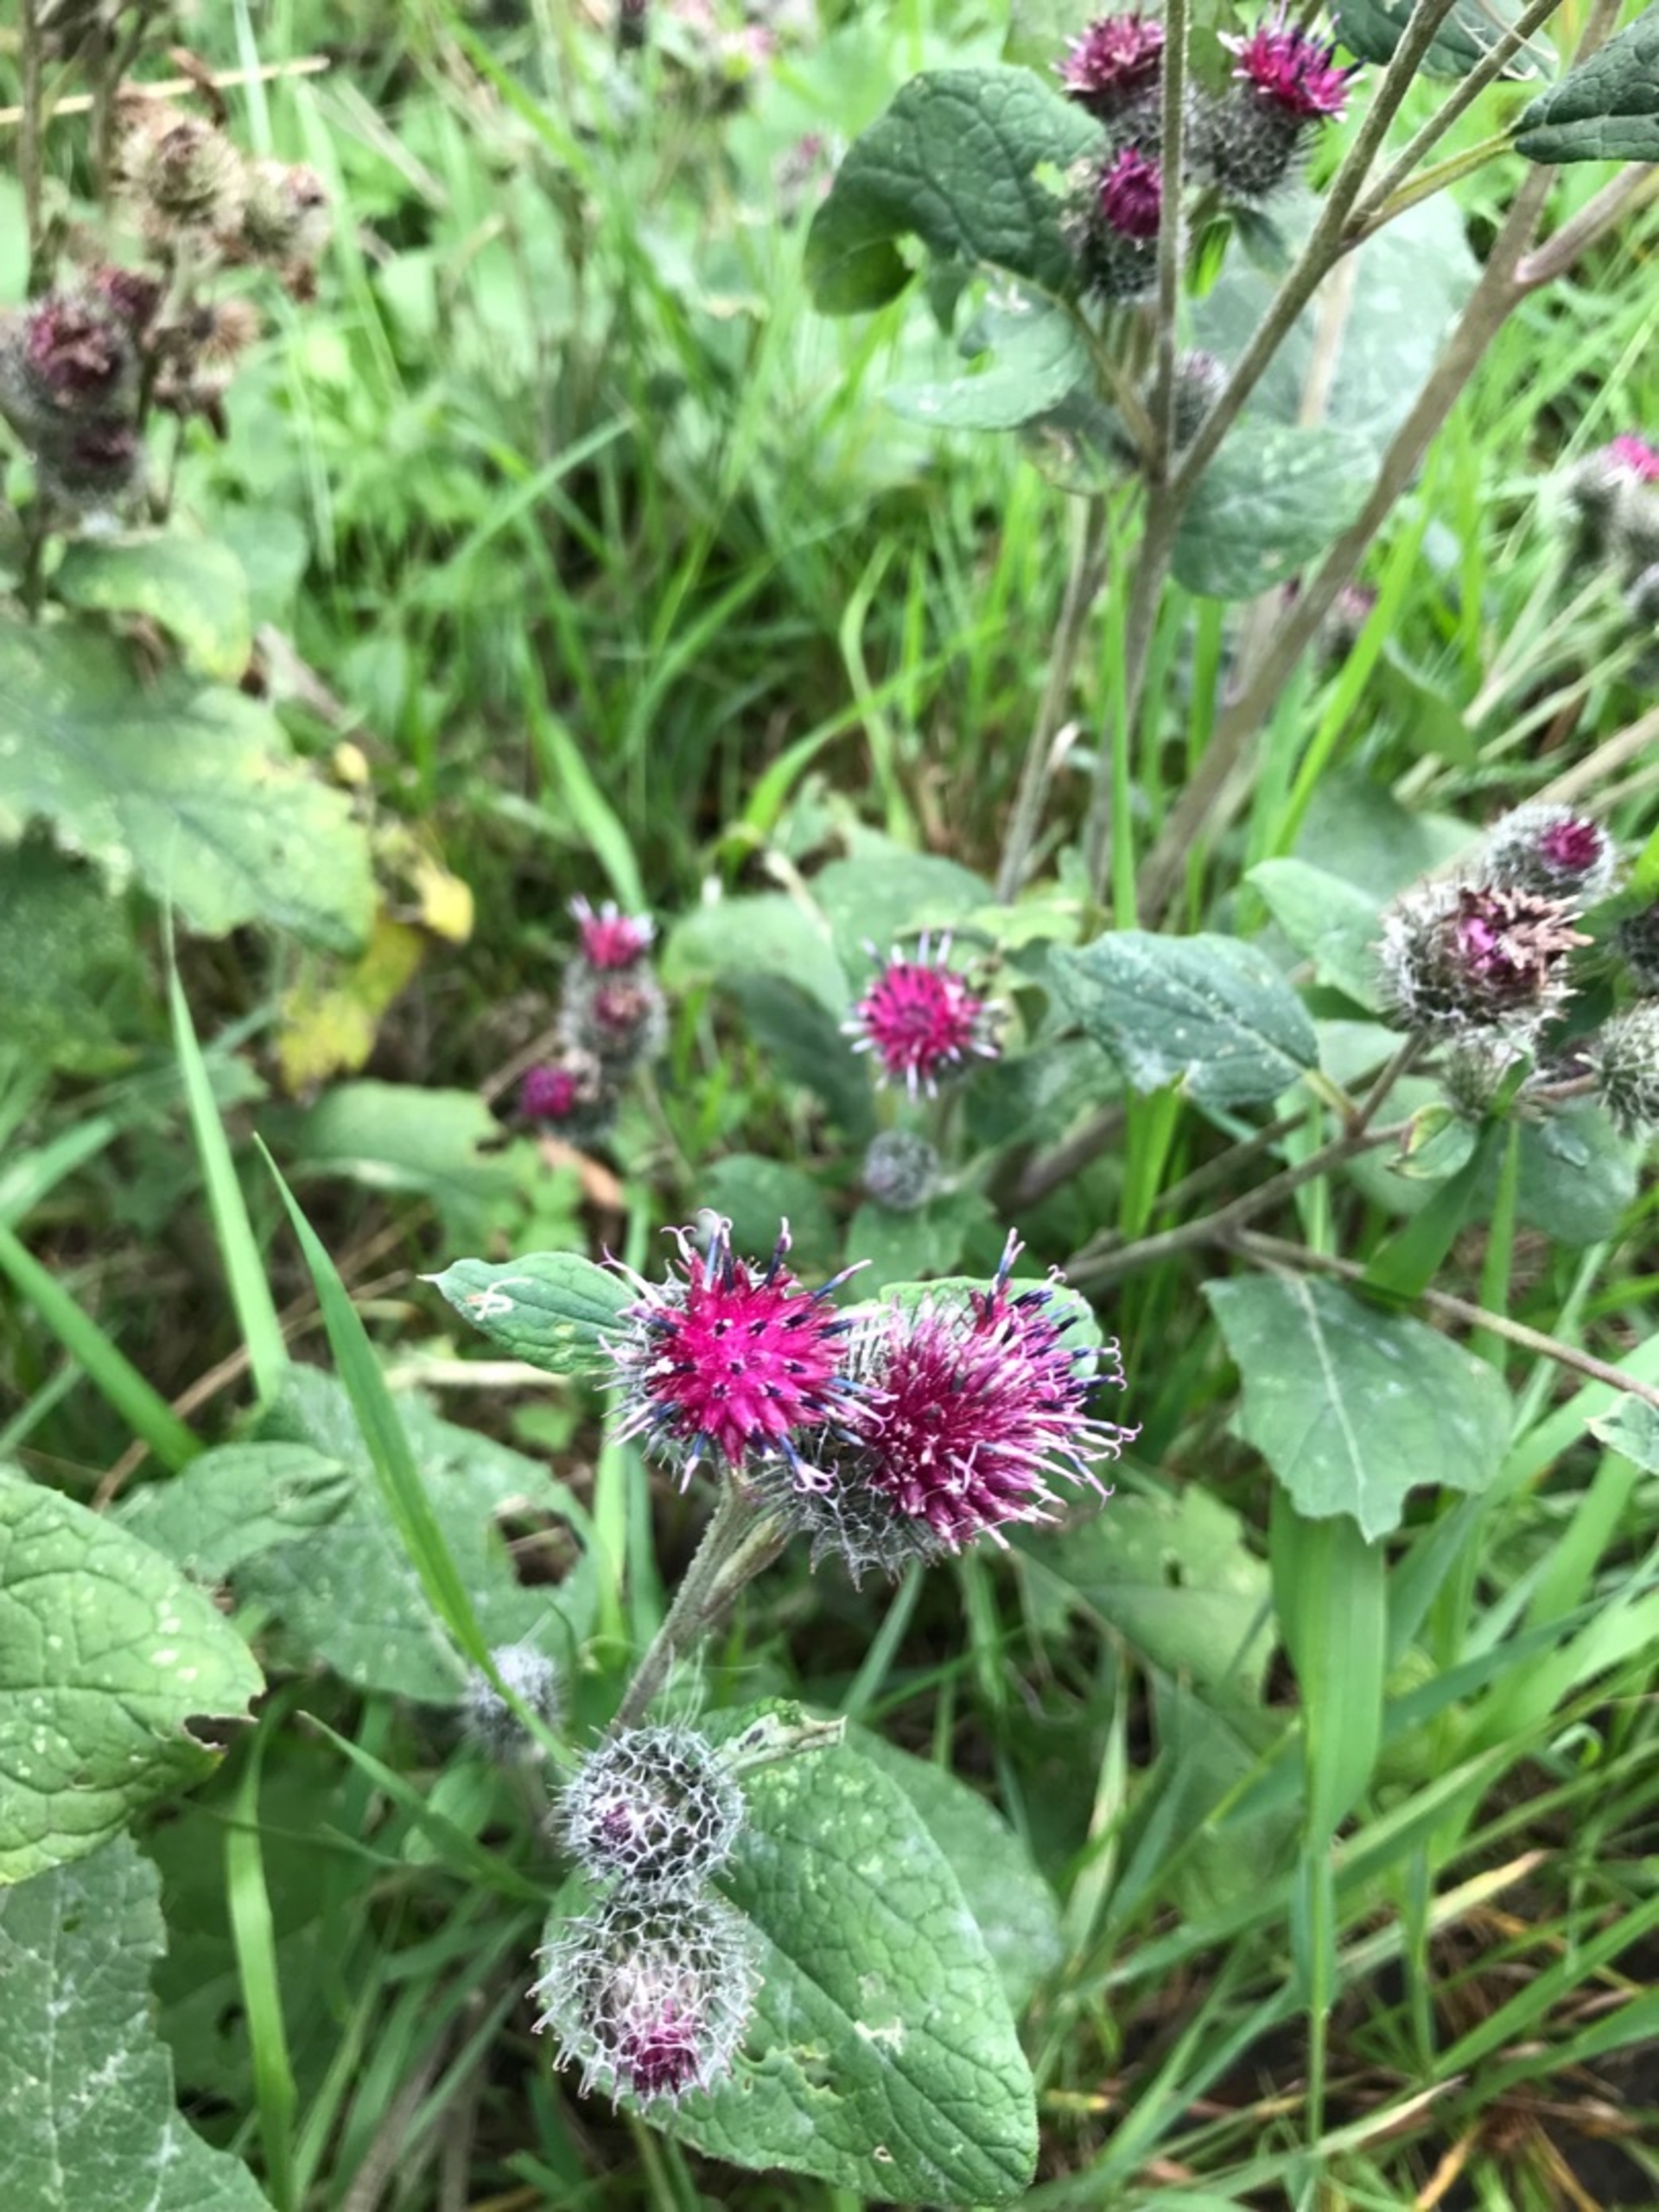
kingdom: Plantae
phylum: Tracheophyta
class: Magnoliopsida
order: Asterales
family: Asteraceae
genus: Arctium
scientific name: Arctium tomentosum
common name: Filtet burre
